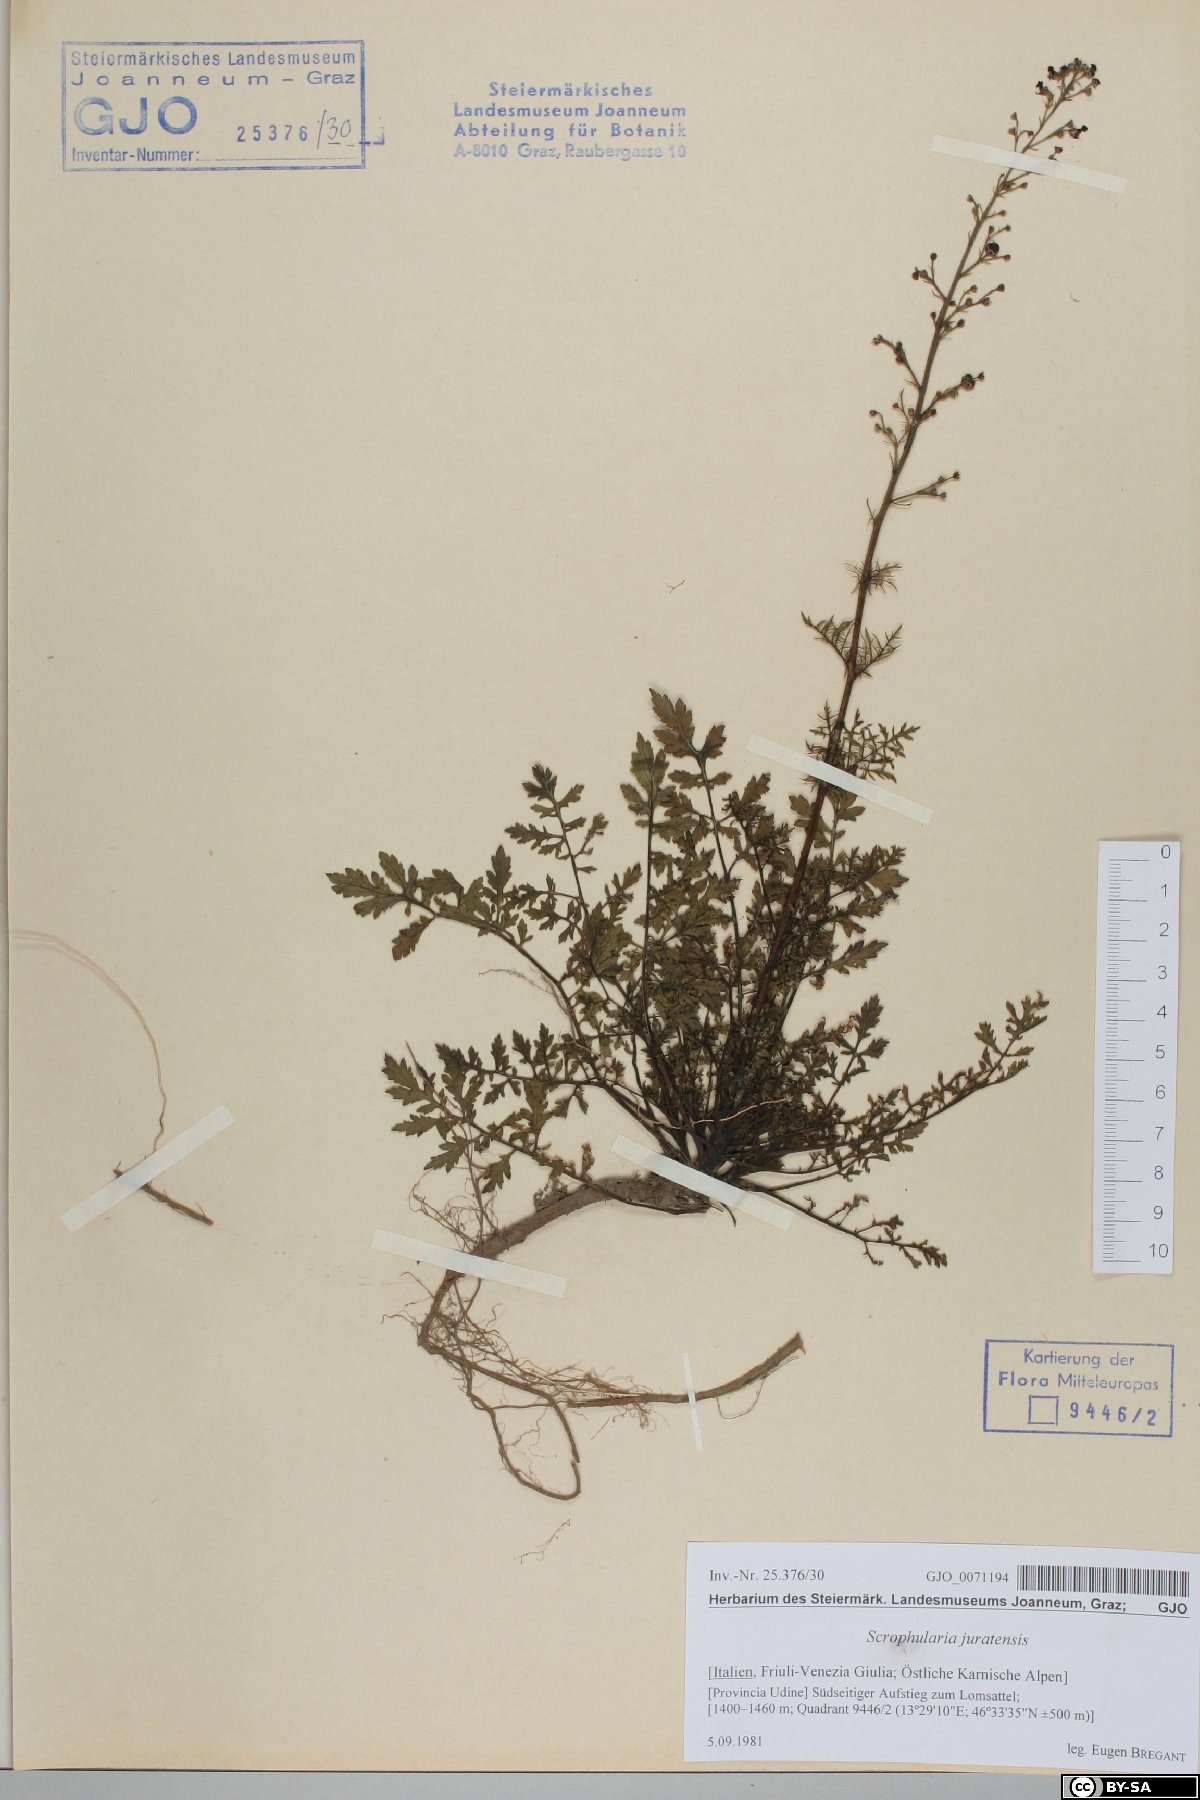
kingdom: Plantae
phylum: Tracheophyta
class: Magnoliopsida
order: Lamiales
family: Scrophulariaceae
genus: Scrophularia
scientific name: Scrophularia canina
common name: French figwort
